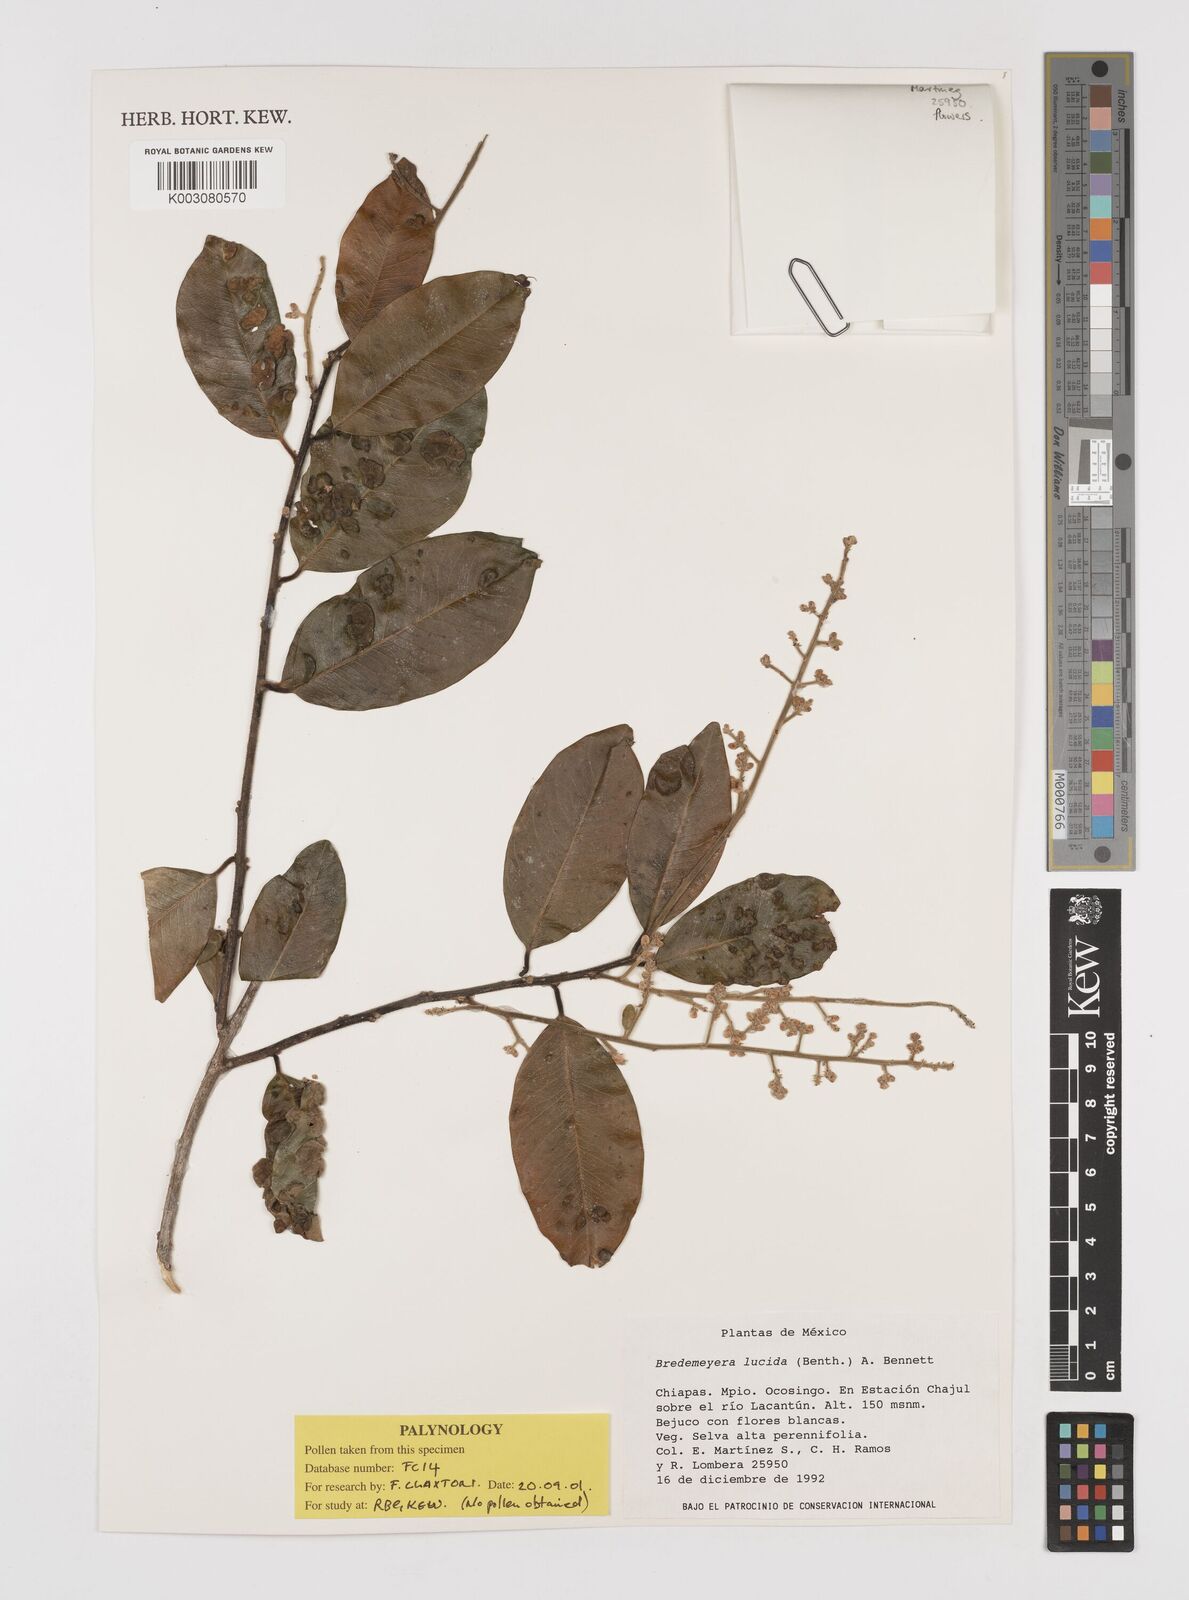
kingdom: Plantae
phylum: Tracheophyta
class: Magnoliopsida
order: Fabales
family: Polygalaceae
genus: Bredemeyera
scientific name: Bredemeyera lucida
